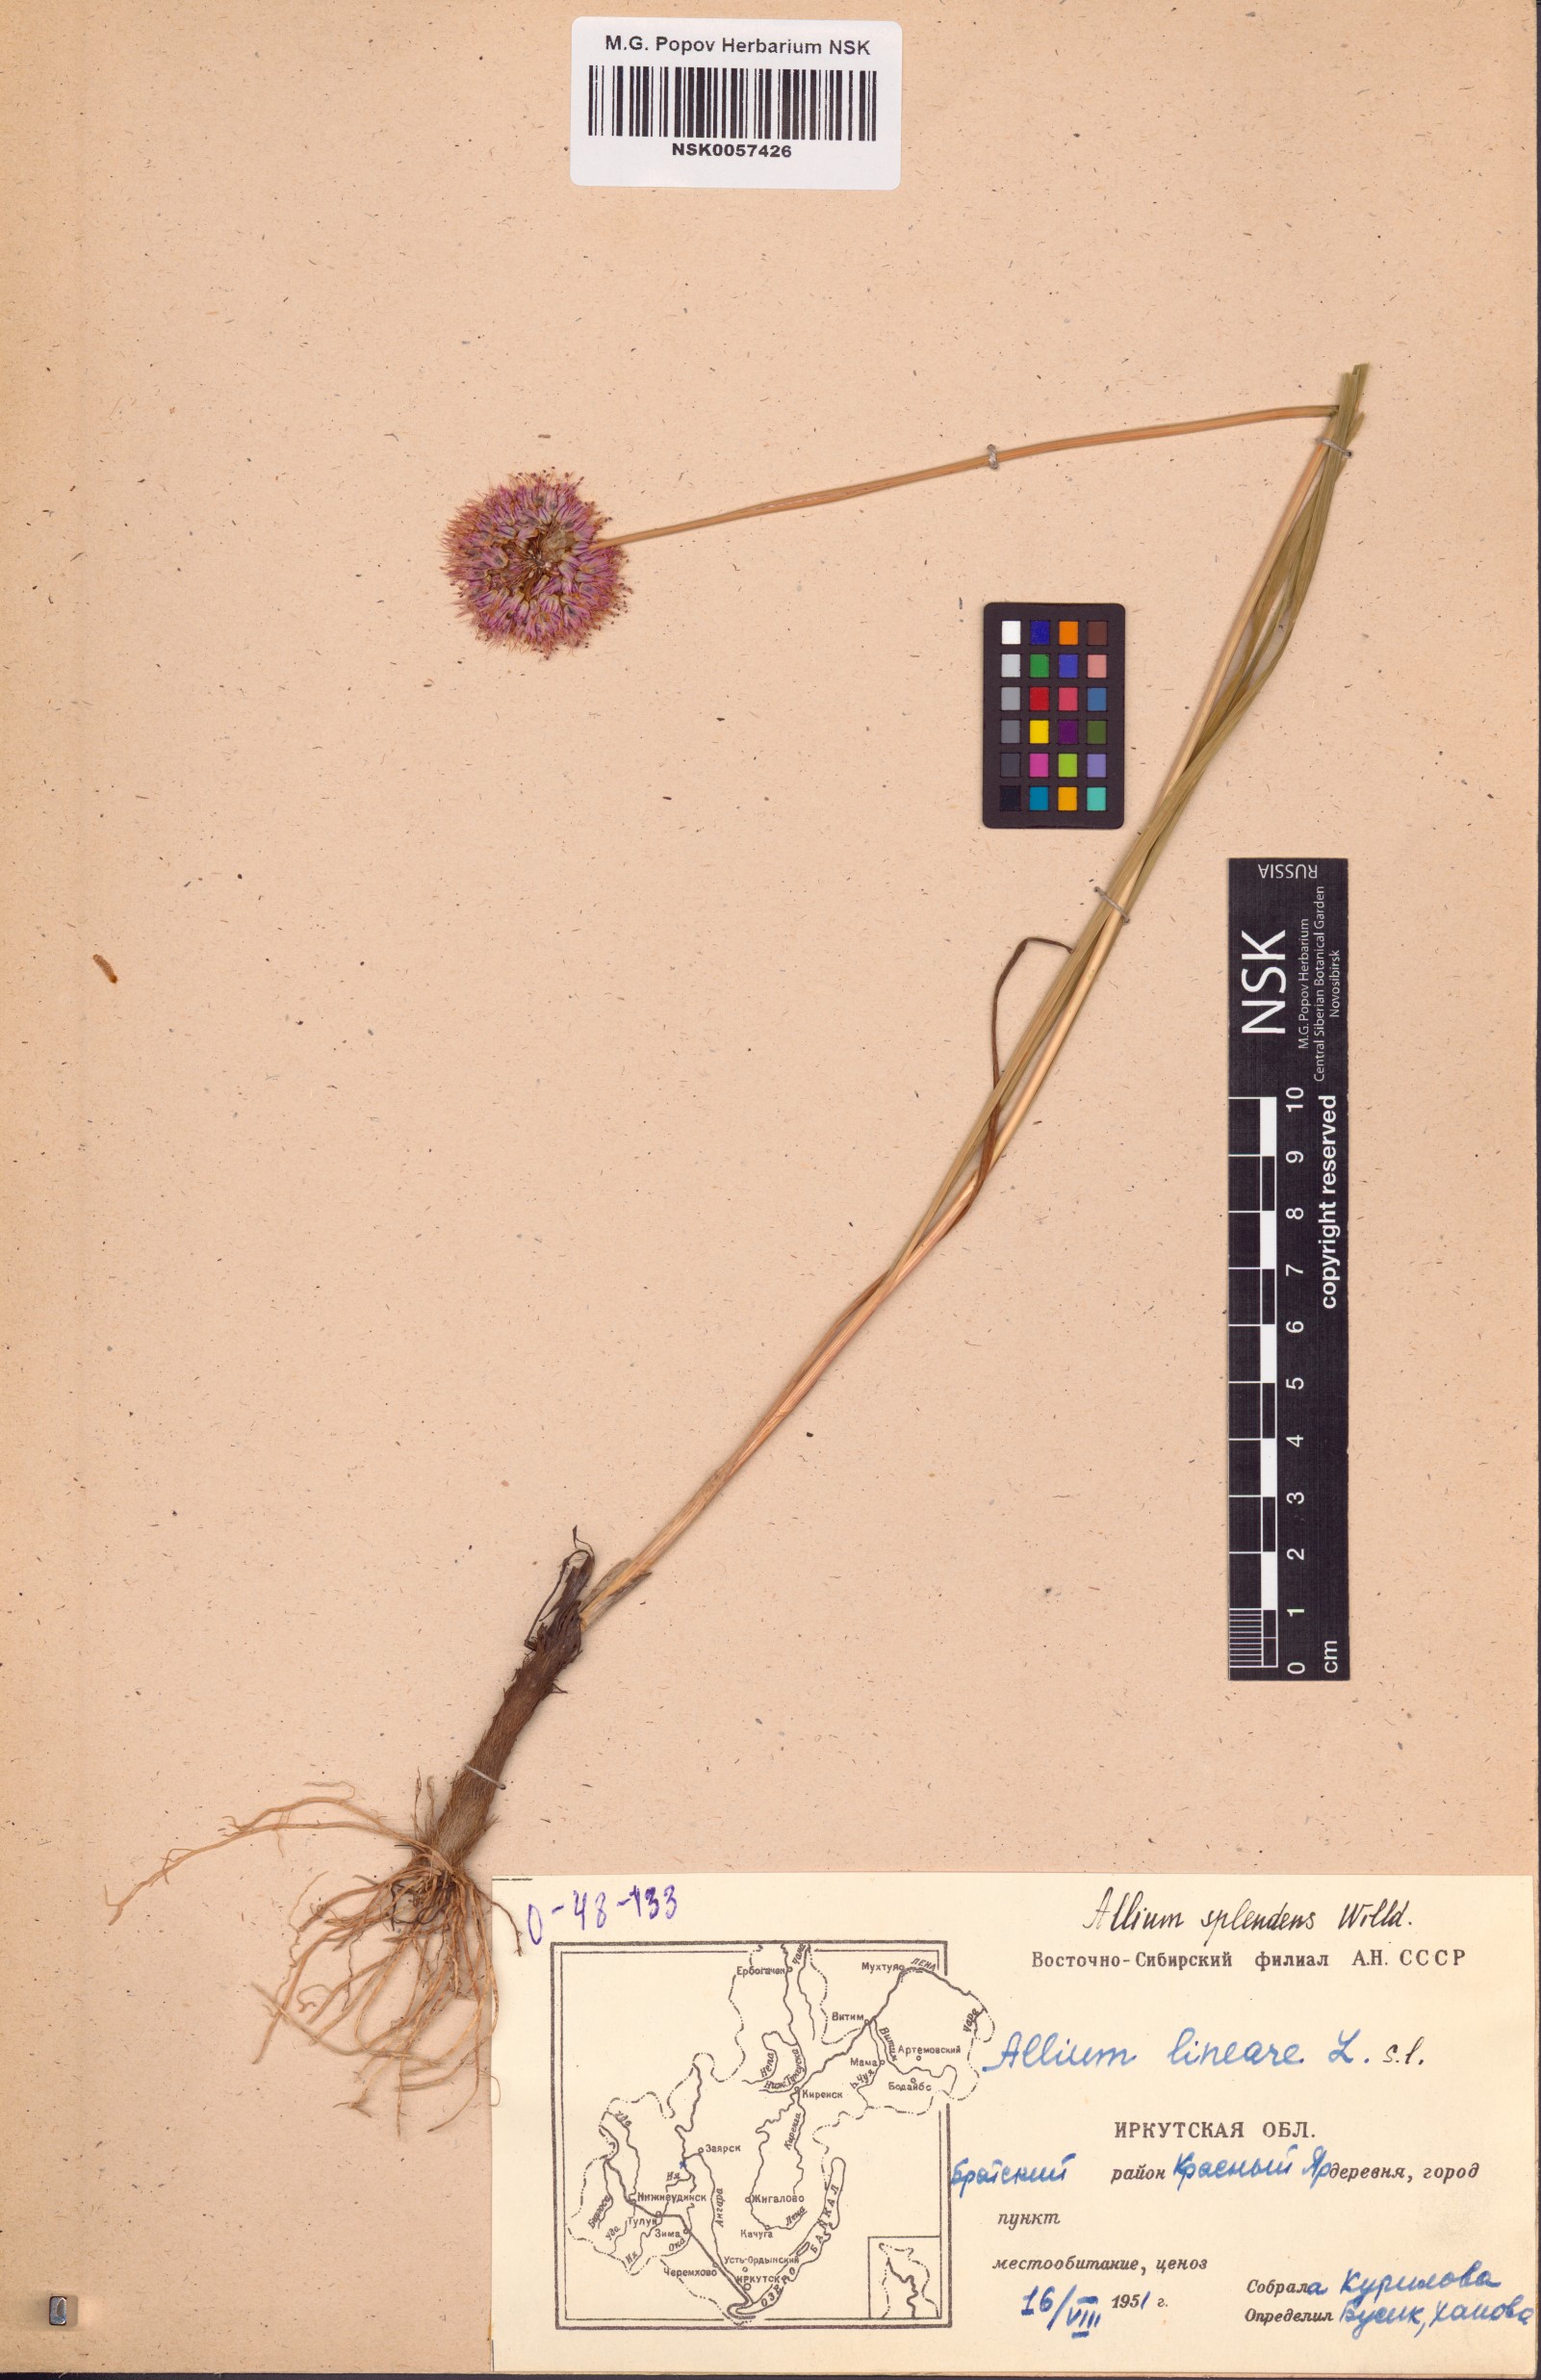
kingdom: Plantae
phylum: Tracheophyta
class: Liliopsida
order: Asparagales
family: Amaryllidaceae
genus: Allium
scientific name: Allium splendens
